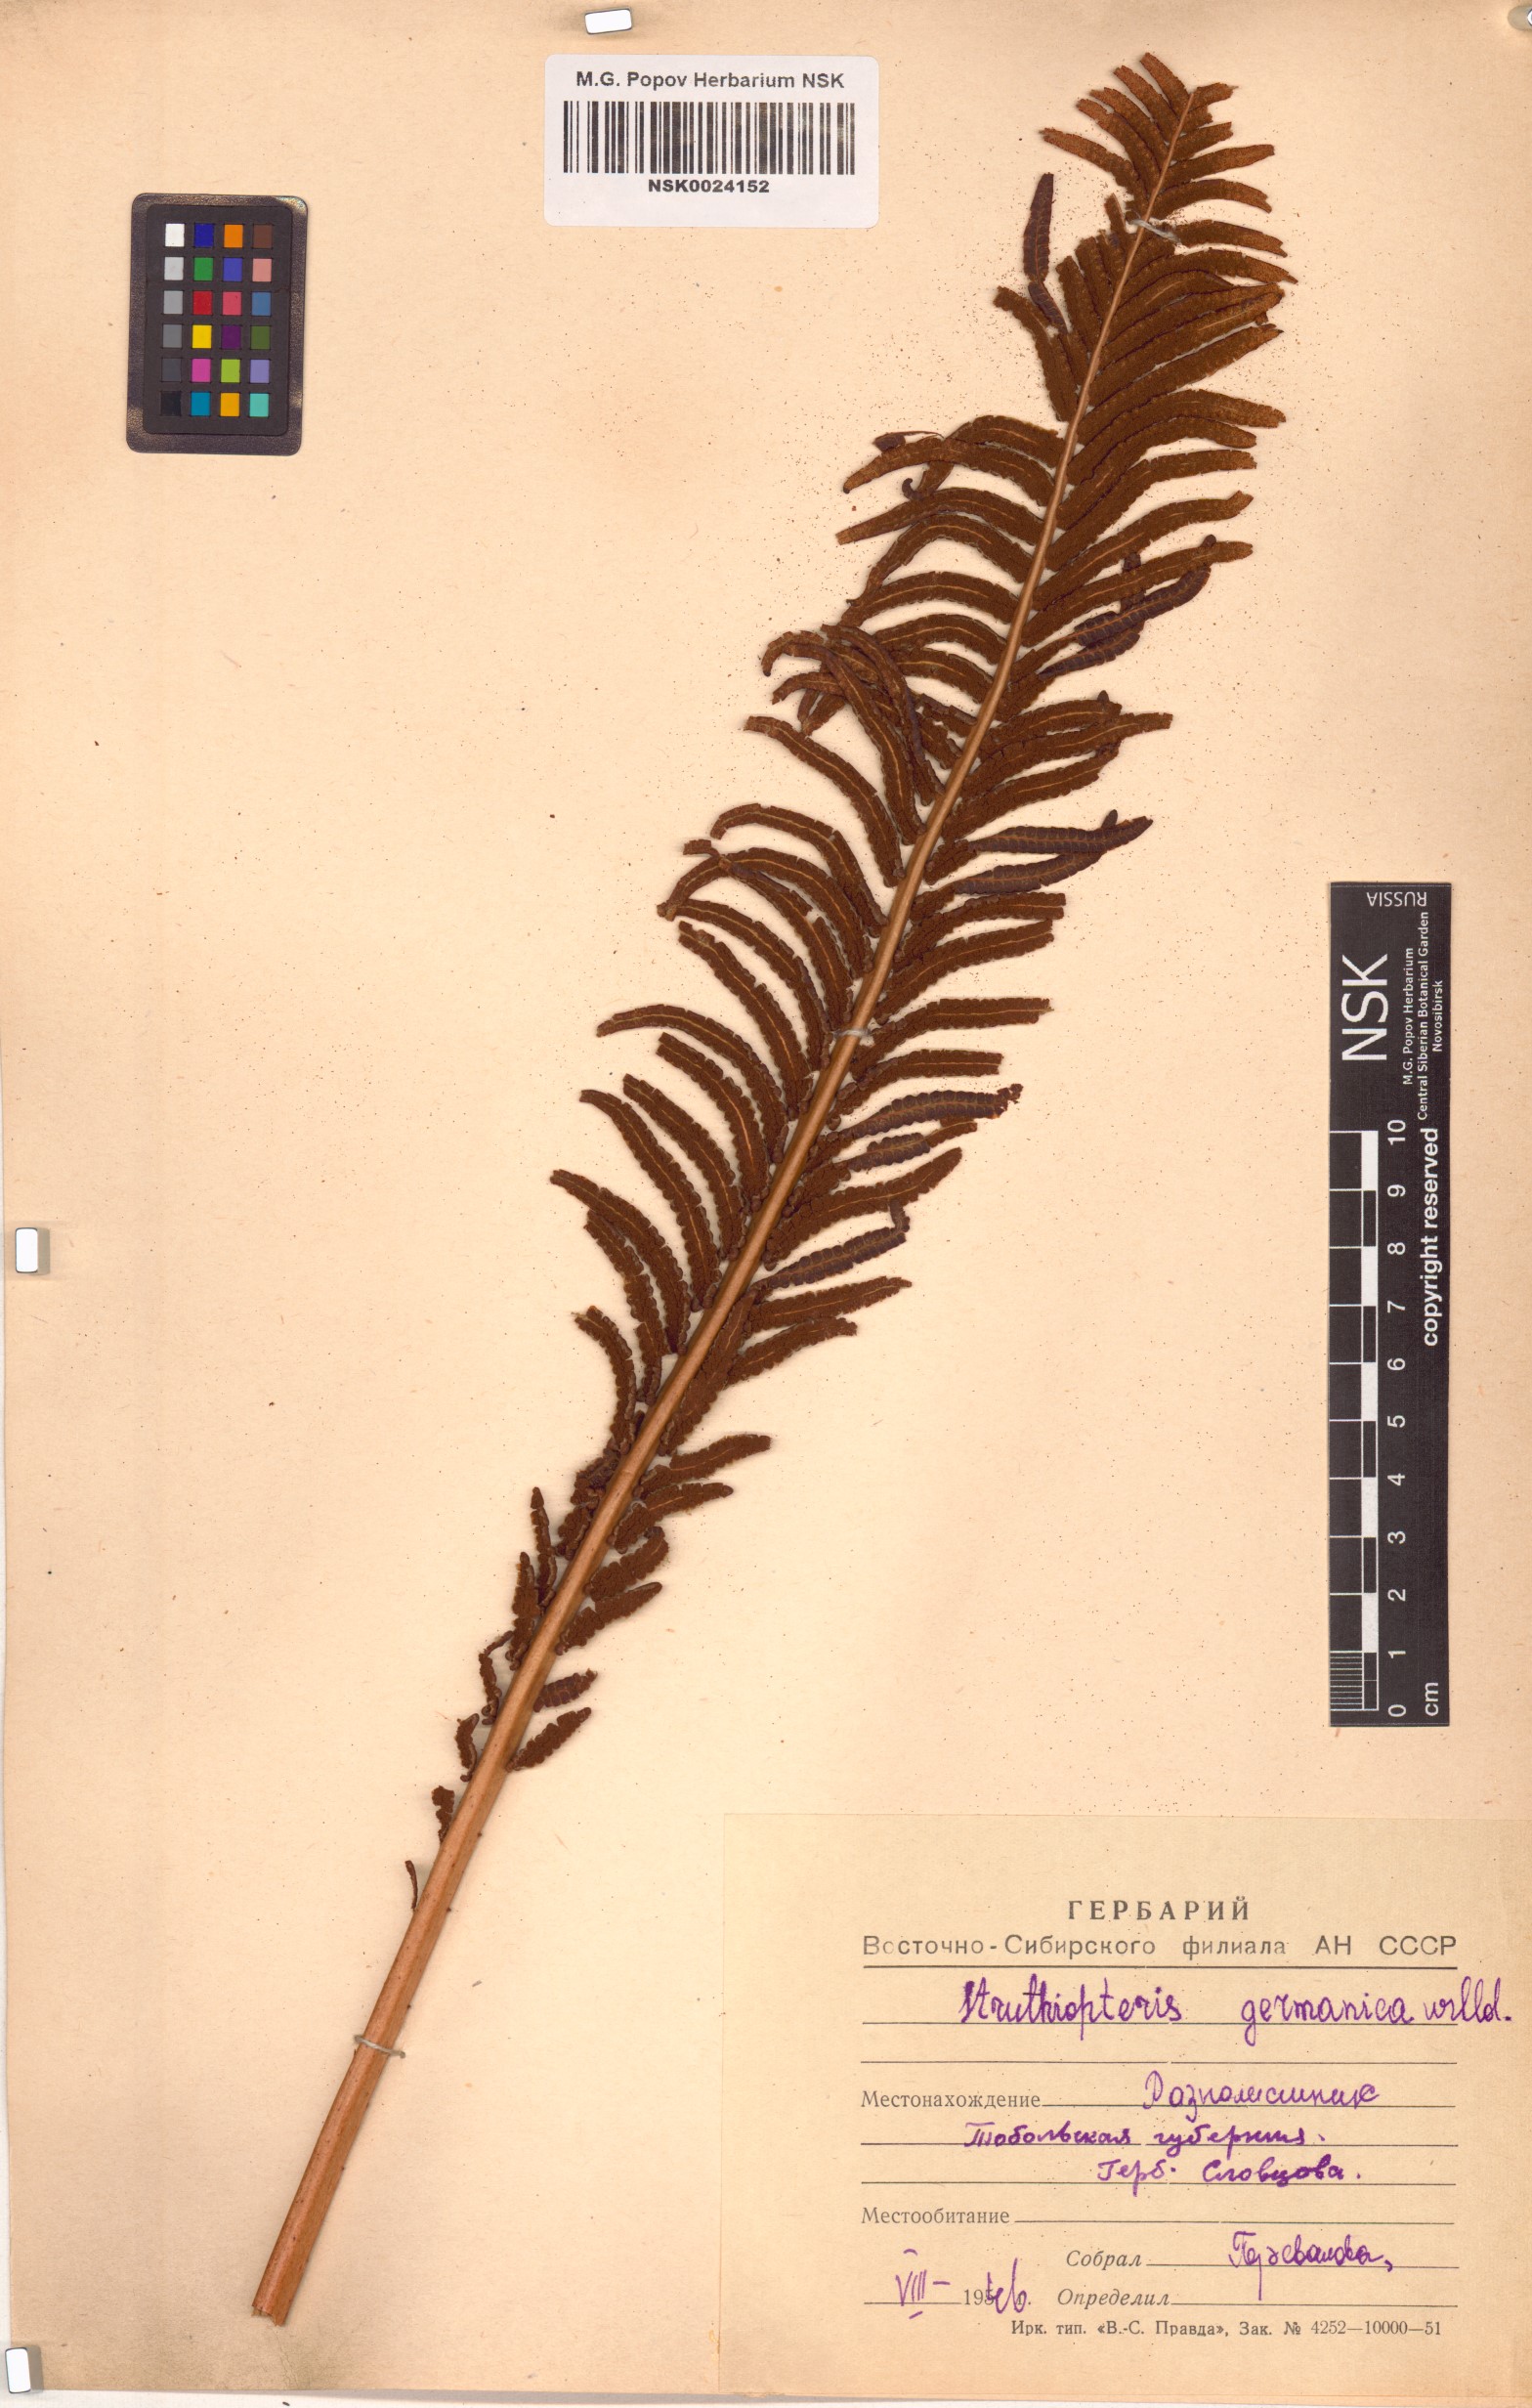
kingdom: Plantae
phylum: Tracheophyta
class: Polypodiopsida
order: Polypodiales
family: Onocleaceae
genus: Matteuccia
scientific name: Matteuccia struthiopteris
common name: Ostrich fern
